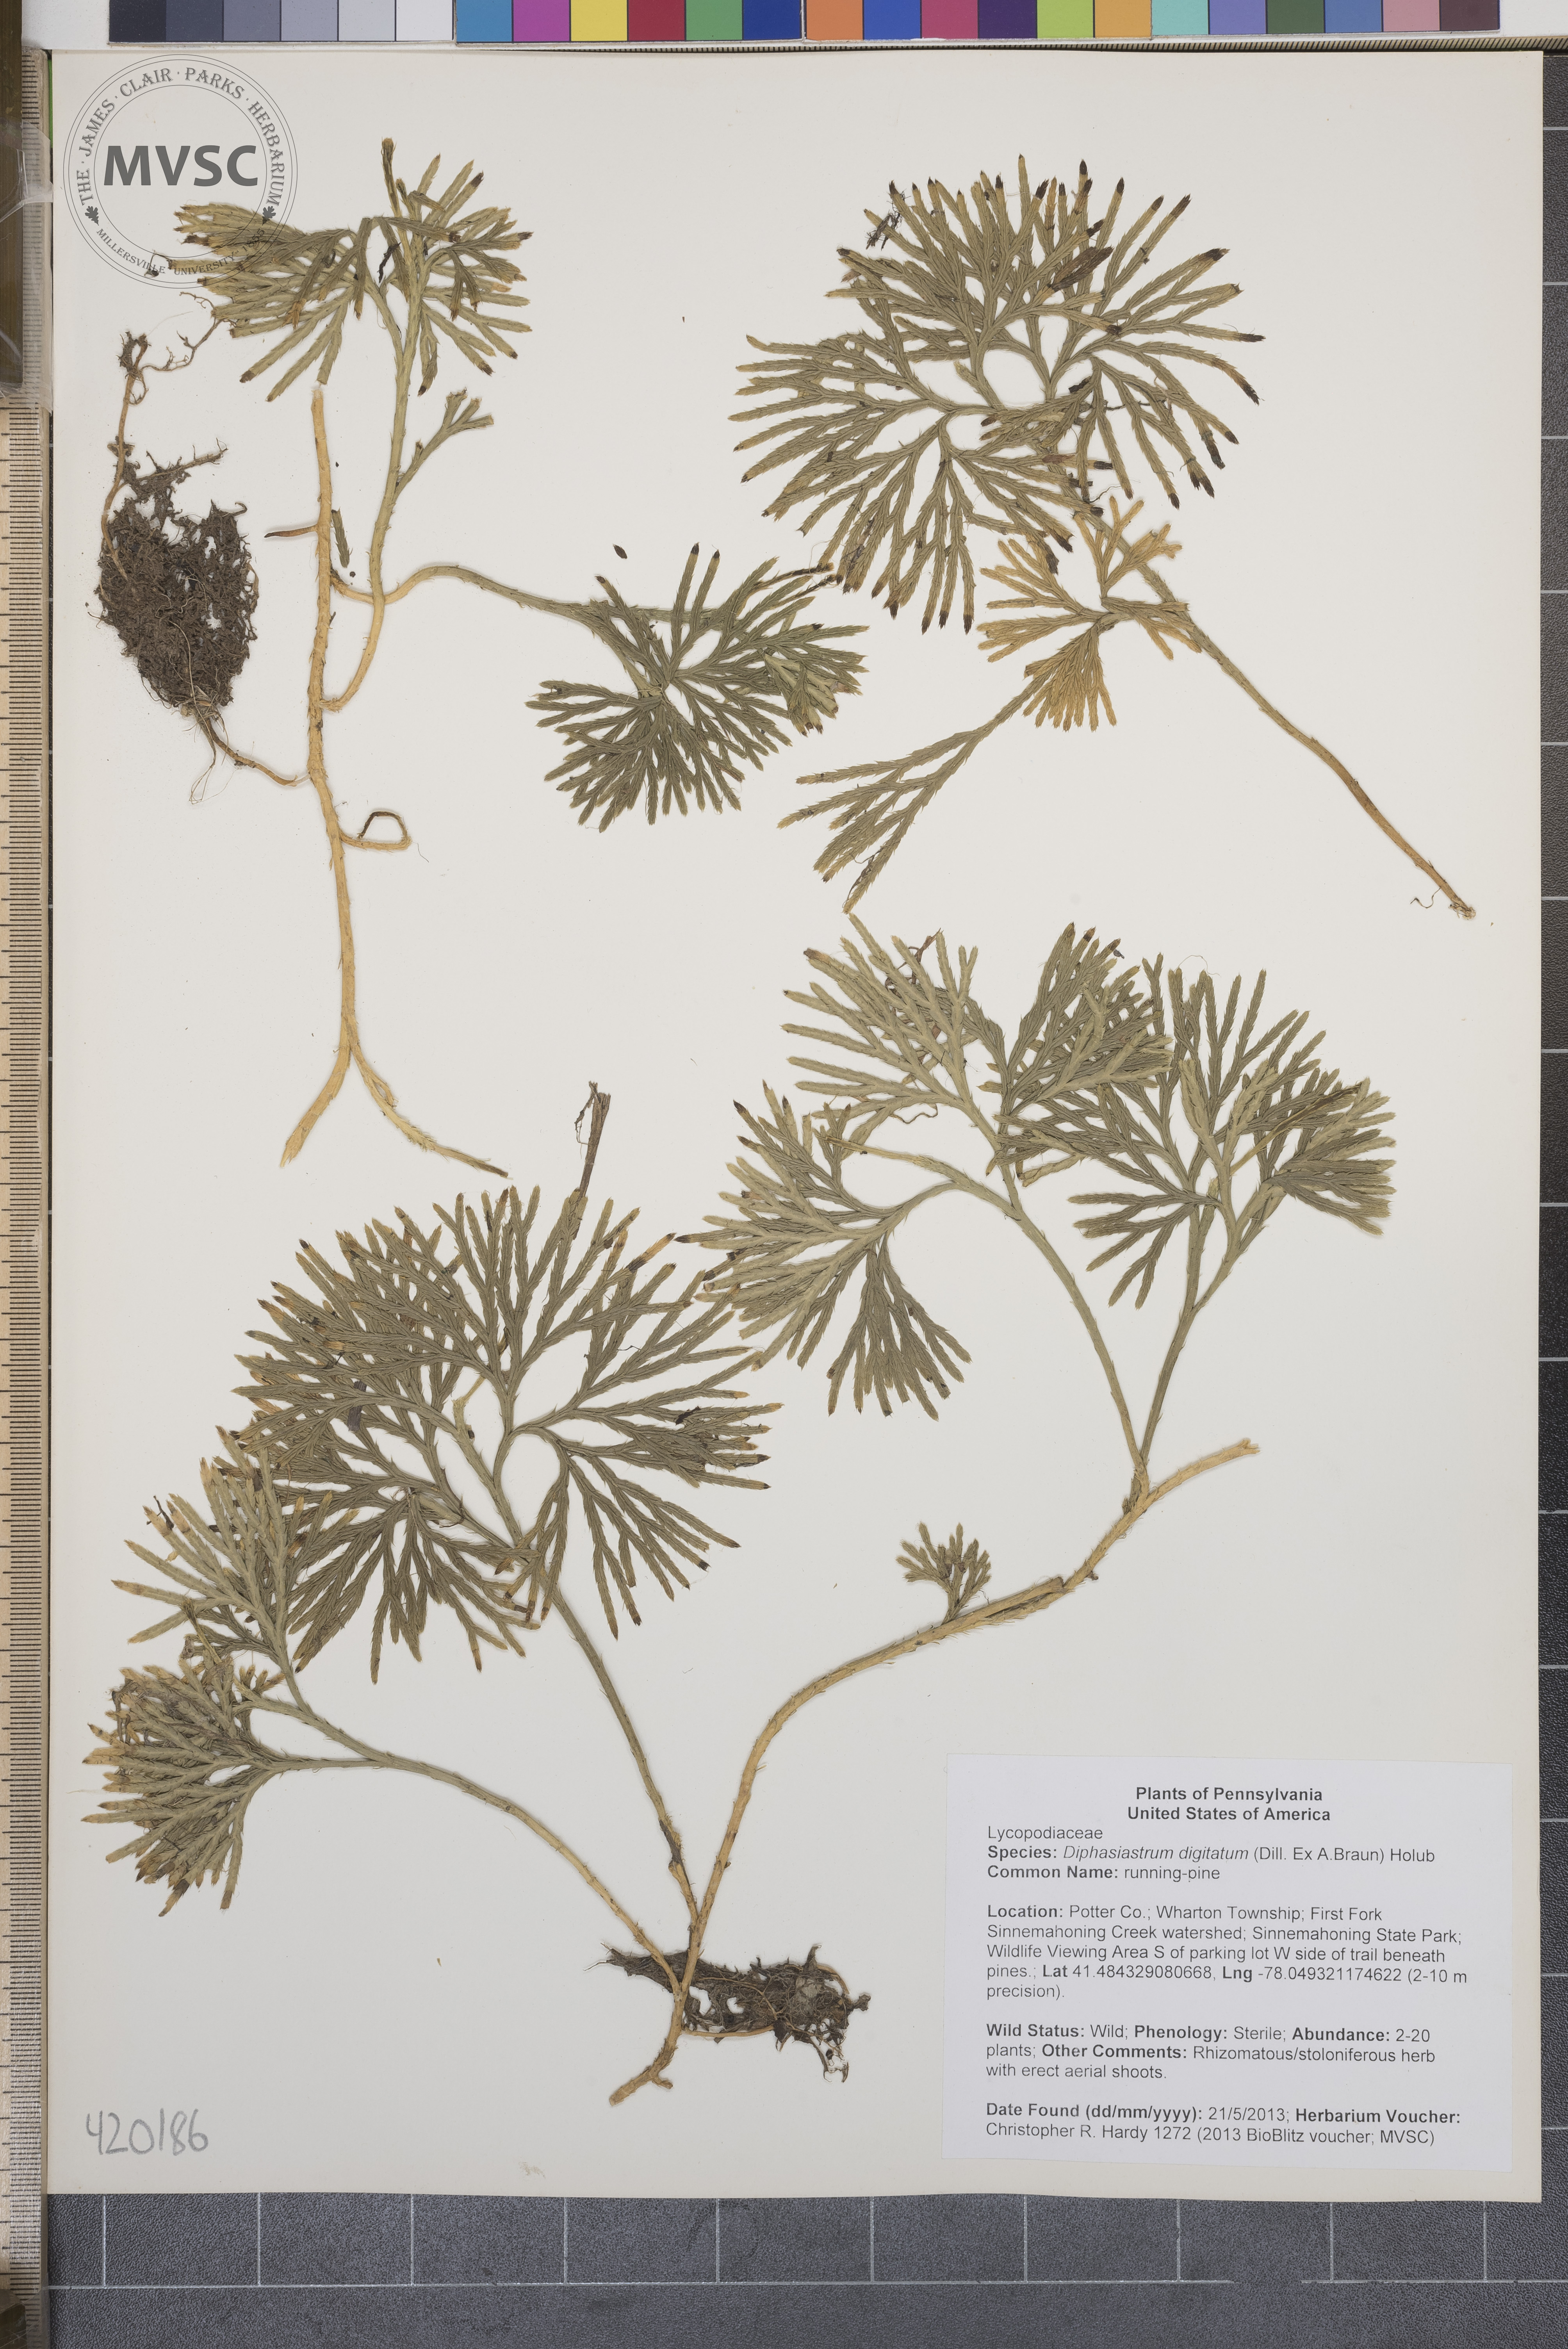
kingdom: Plantae
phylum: Tracheophyta
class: Lycopodiopsida
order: Lycopodiales
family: Lycopodiaceae
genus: Diphasiastrum
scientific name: Diphasiastrum digitatum
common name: running-pine
